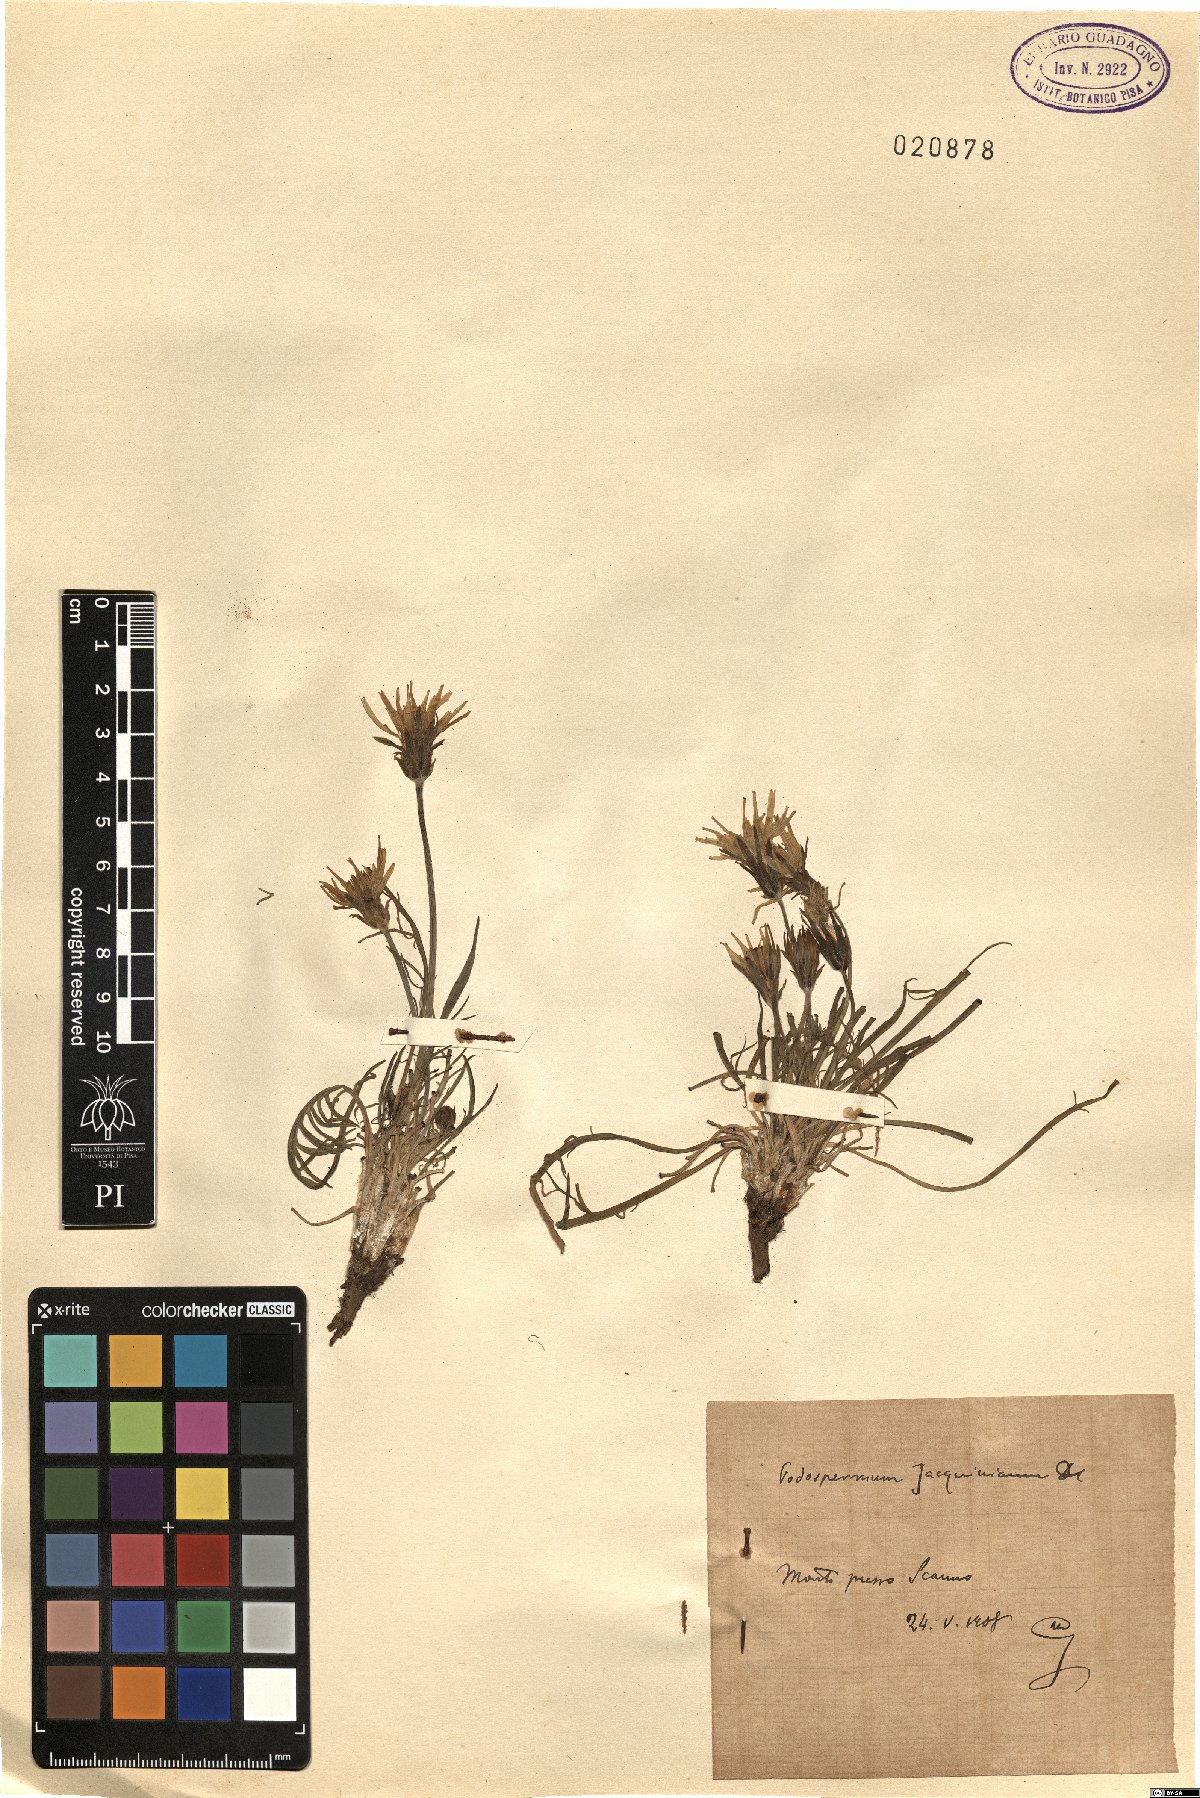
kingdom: Plantae
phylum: Tracheophyta
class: Magnoliopsida
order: Asterales
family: Asteraceae
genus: Scorzonera
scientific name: Scorzonera cana
